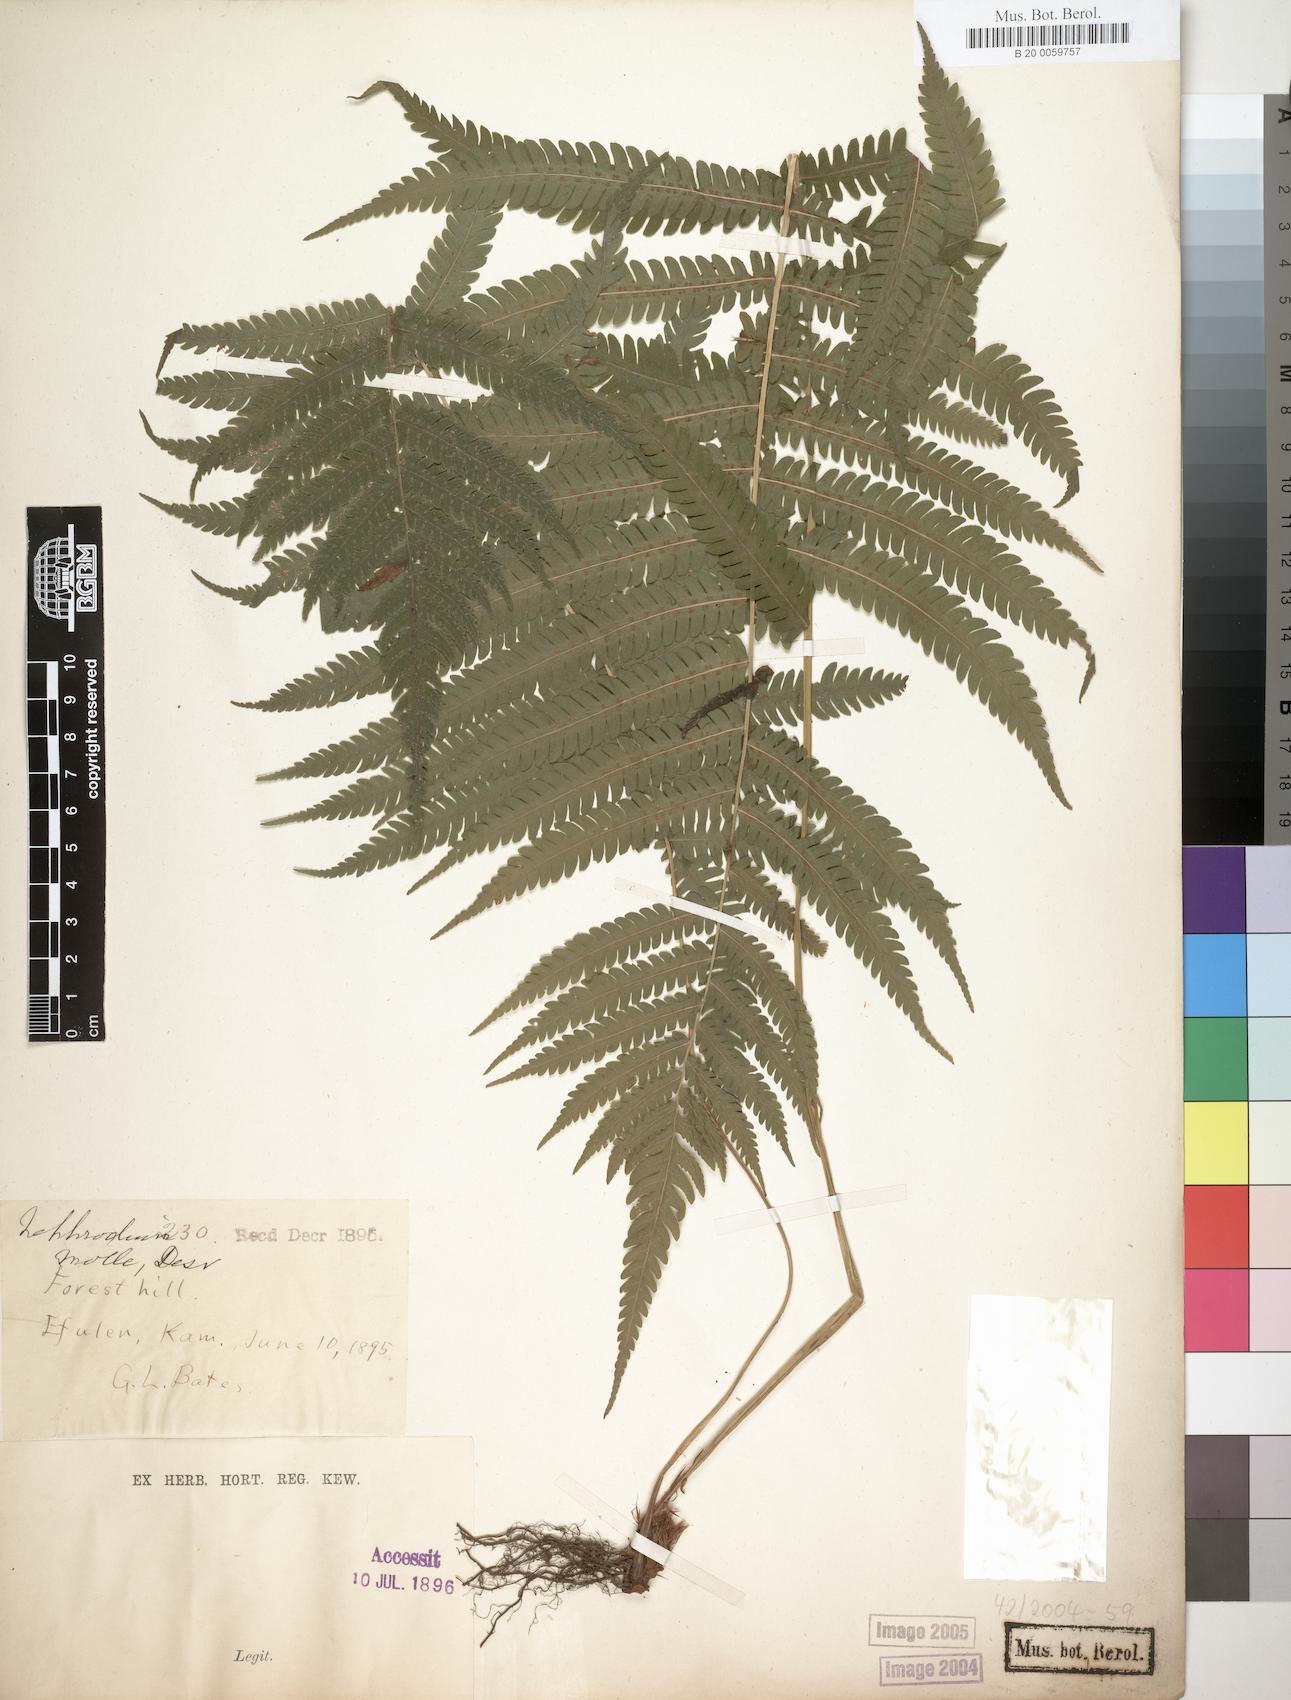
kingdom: Plantae
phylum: Tracheophyta
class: Polypodiopsida
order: Polypodiales
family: Thelypteridaceae
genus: Christella
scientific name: Christella dentata
